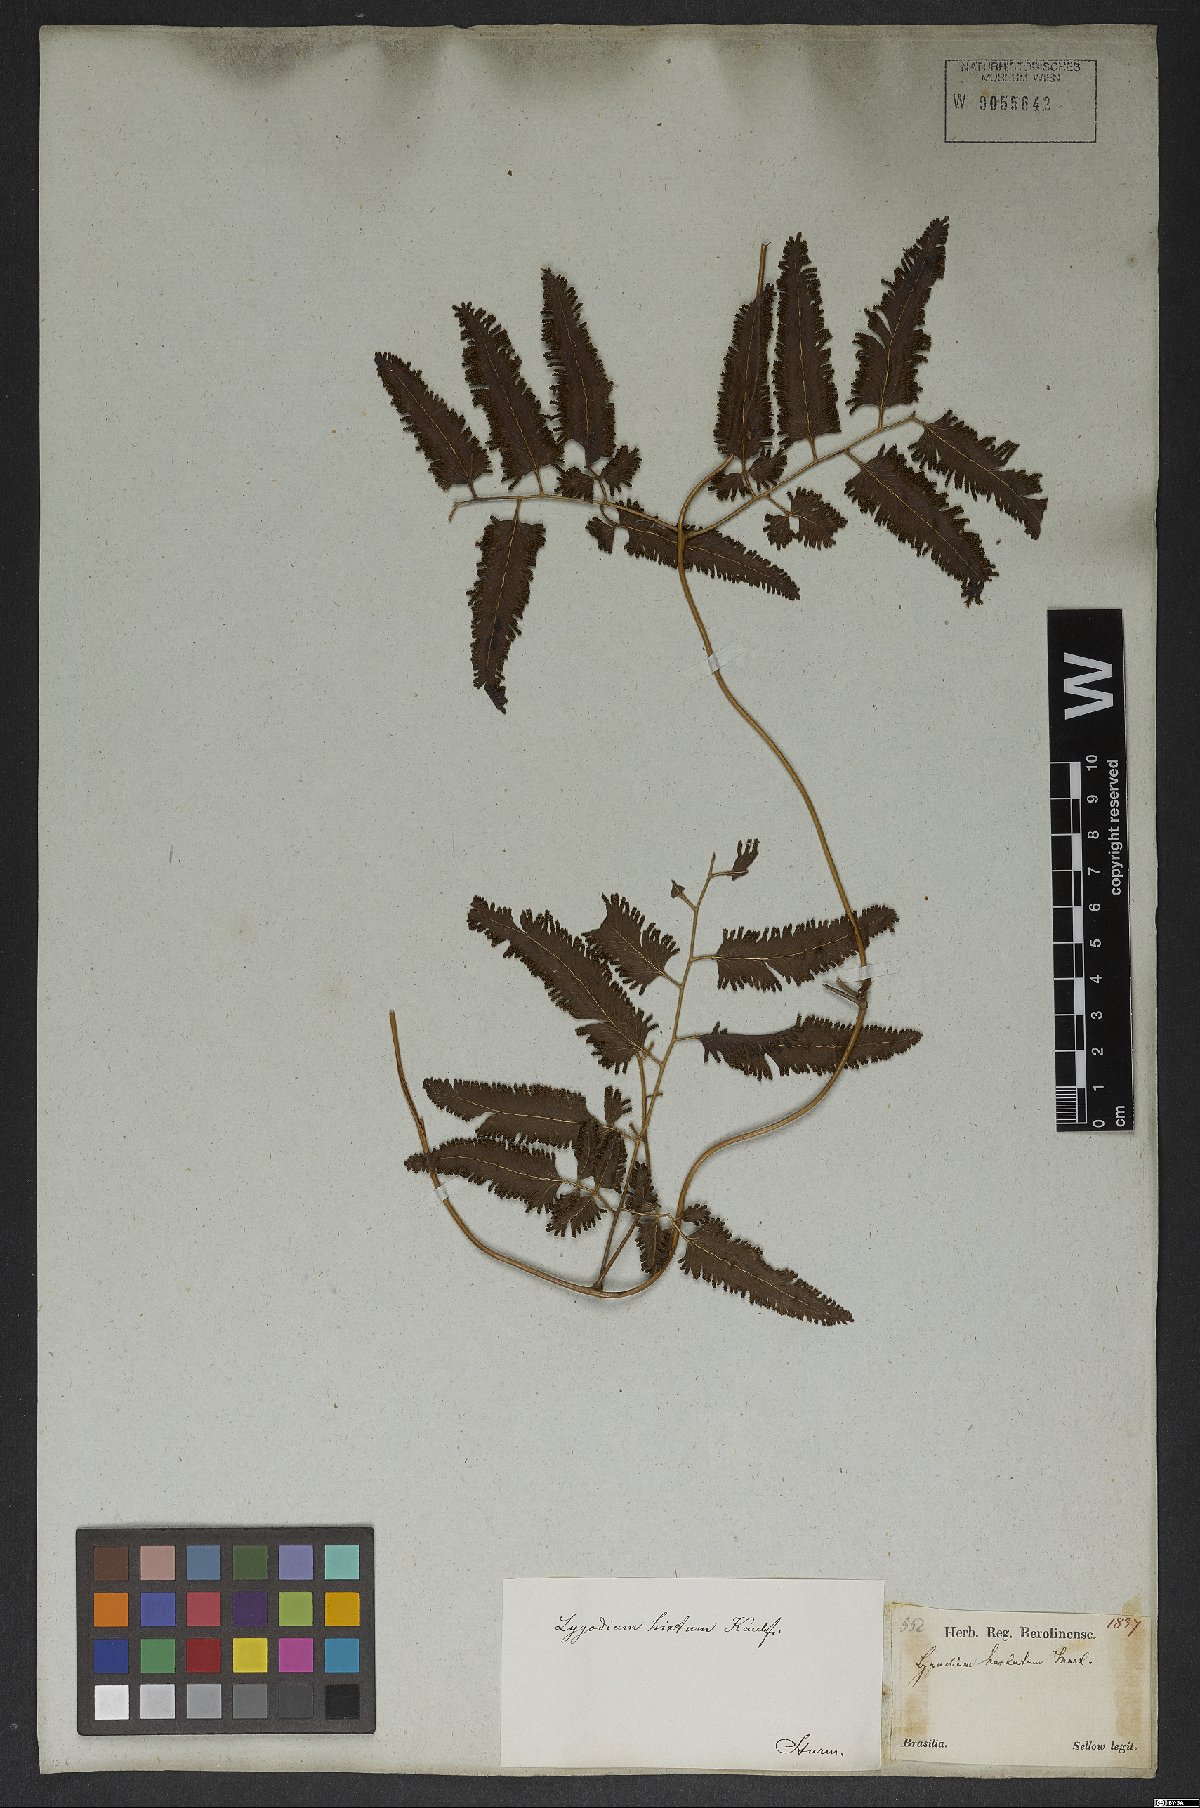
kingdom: Plantae
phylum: Tracheophyta
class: Polypodiopsida
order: Schizaeales
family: Lygodiaceae
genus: Lygodium
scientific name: Lygodium volubile
